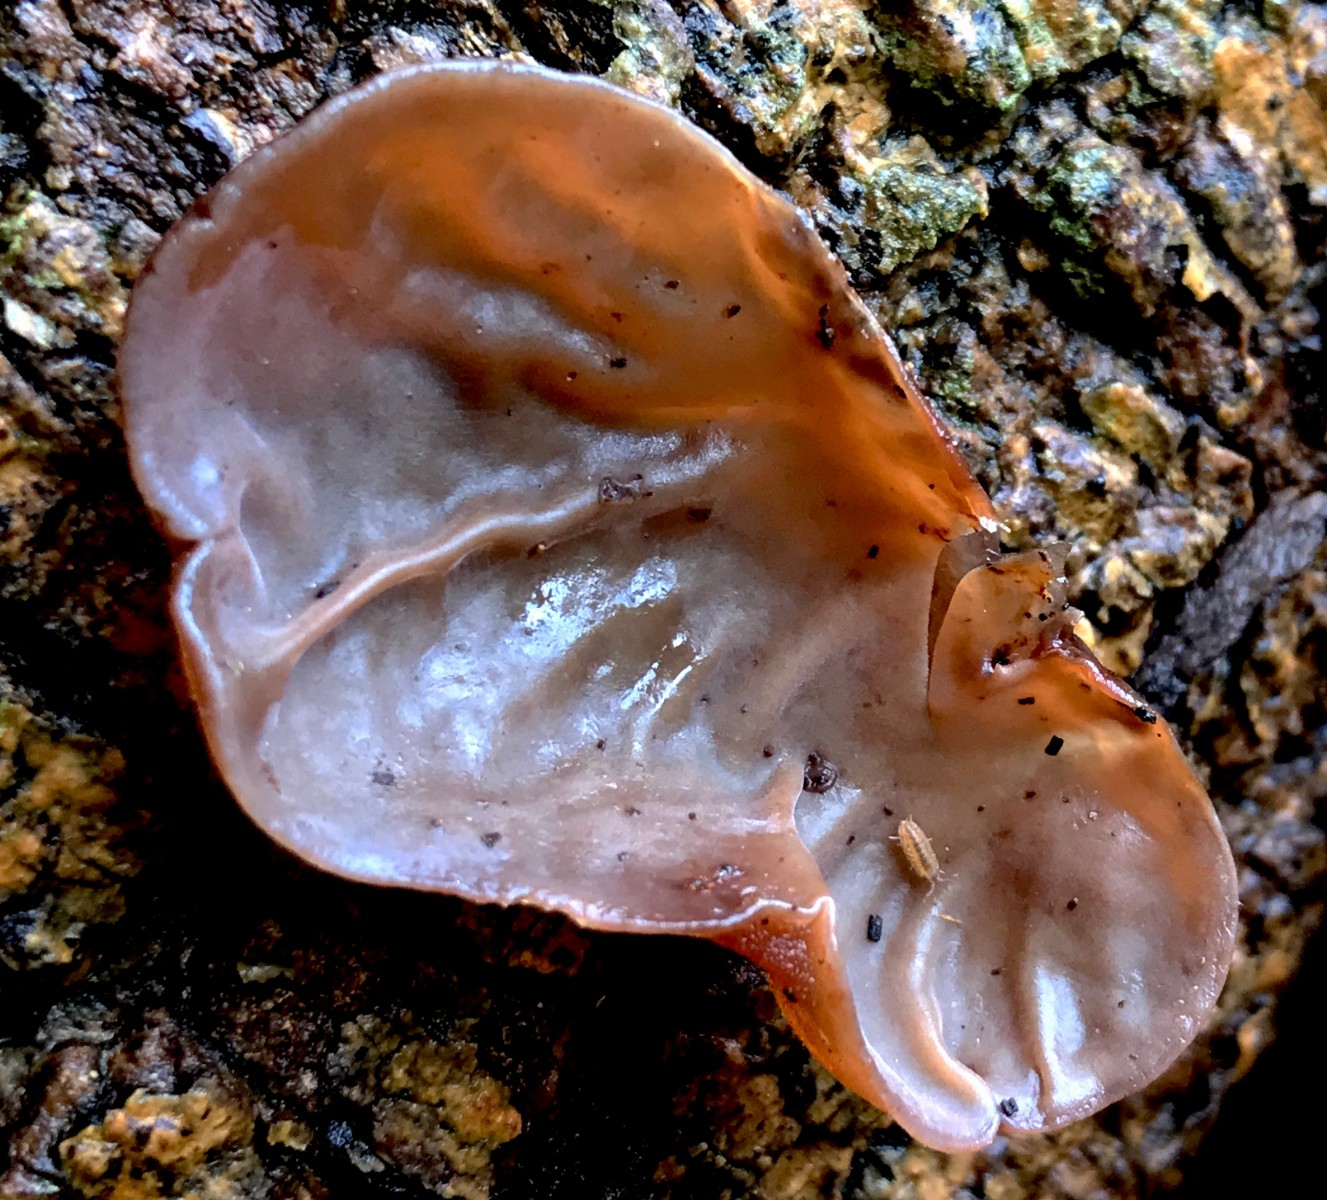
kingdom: Fungi
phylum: Basidiomycota
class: Agaricomycetes
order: Auriculariales
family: Auriculariaceae
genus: Auricularia
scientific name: Auricularia auricula-judae
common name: almindelig judasøre
